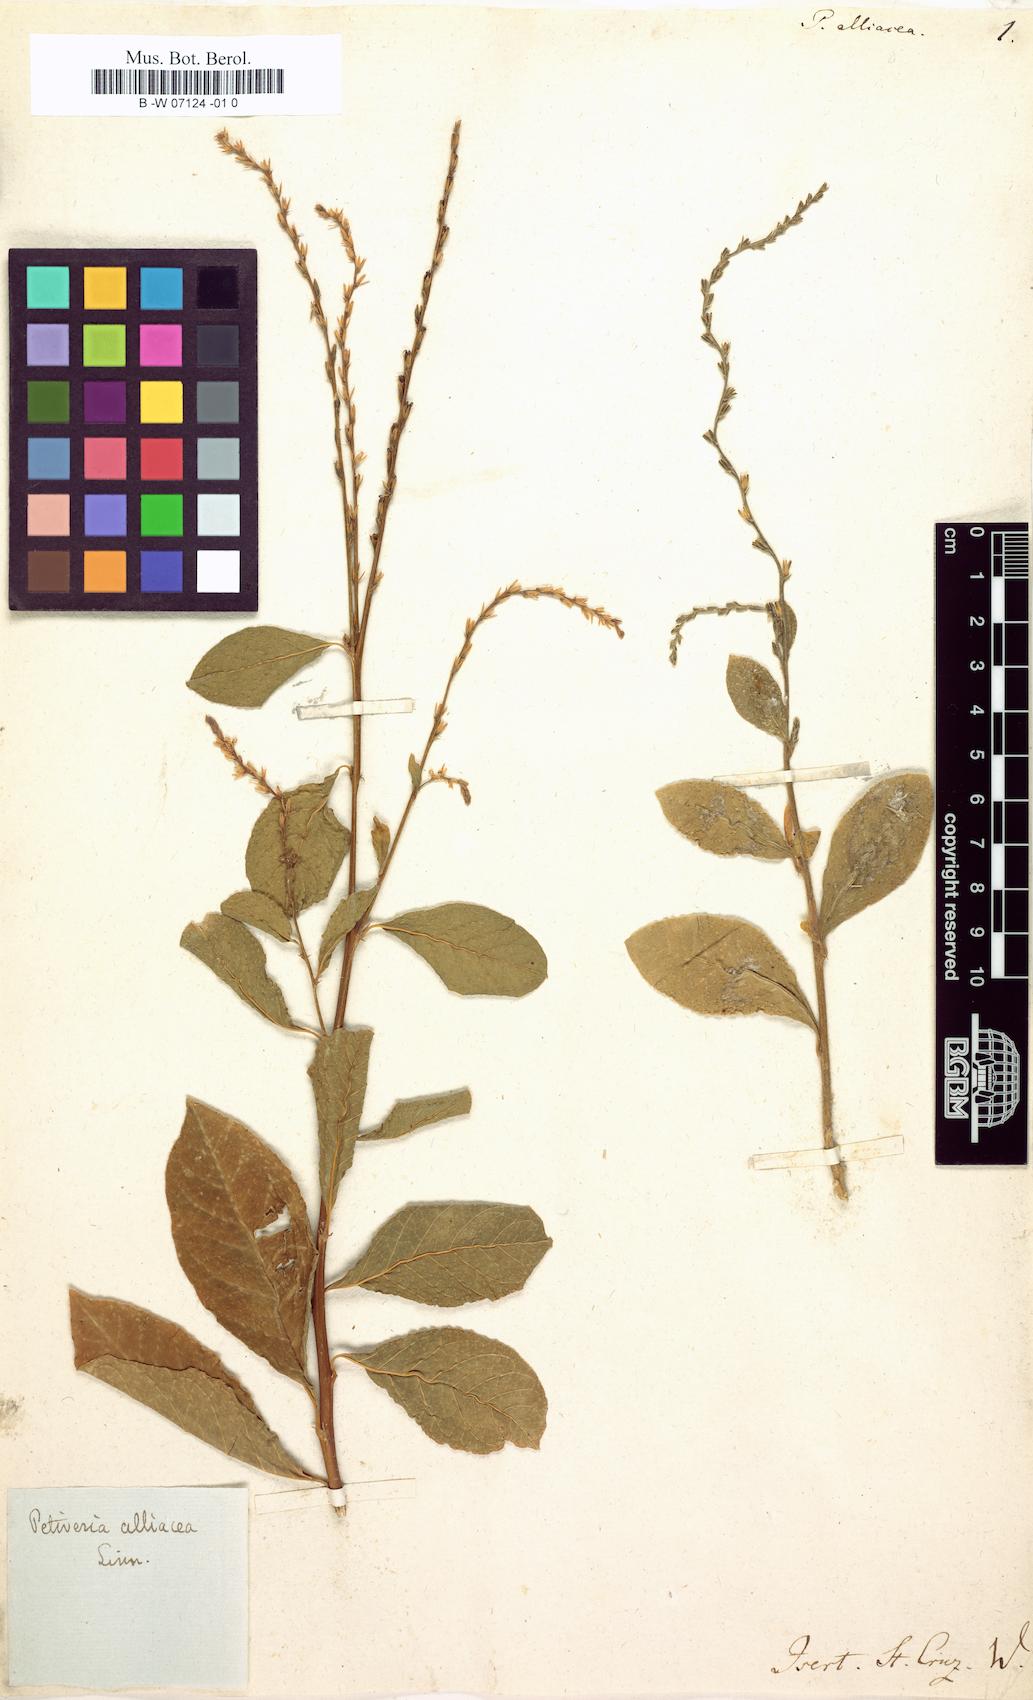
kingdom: Plantae
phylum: Tracheophyta
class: Magnoliopsida
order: Caryophyllales
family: Phytolaccaceae
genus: Petiveria
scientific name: Petiveria alliacea
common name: Garlicweed
